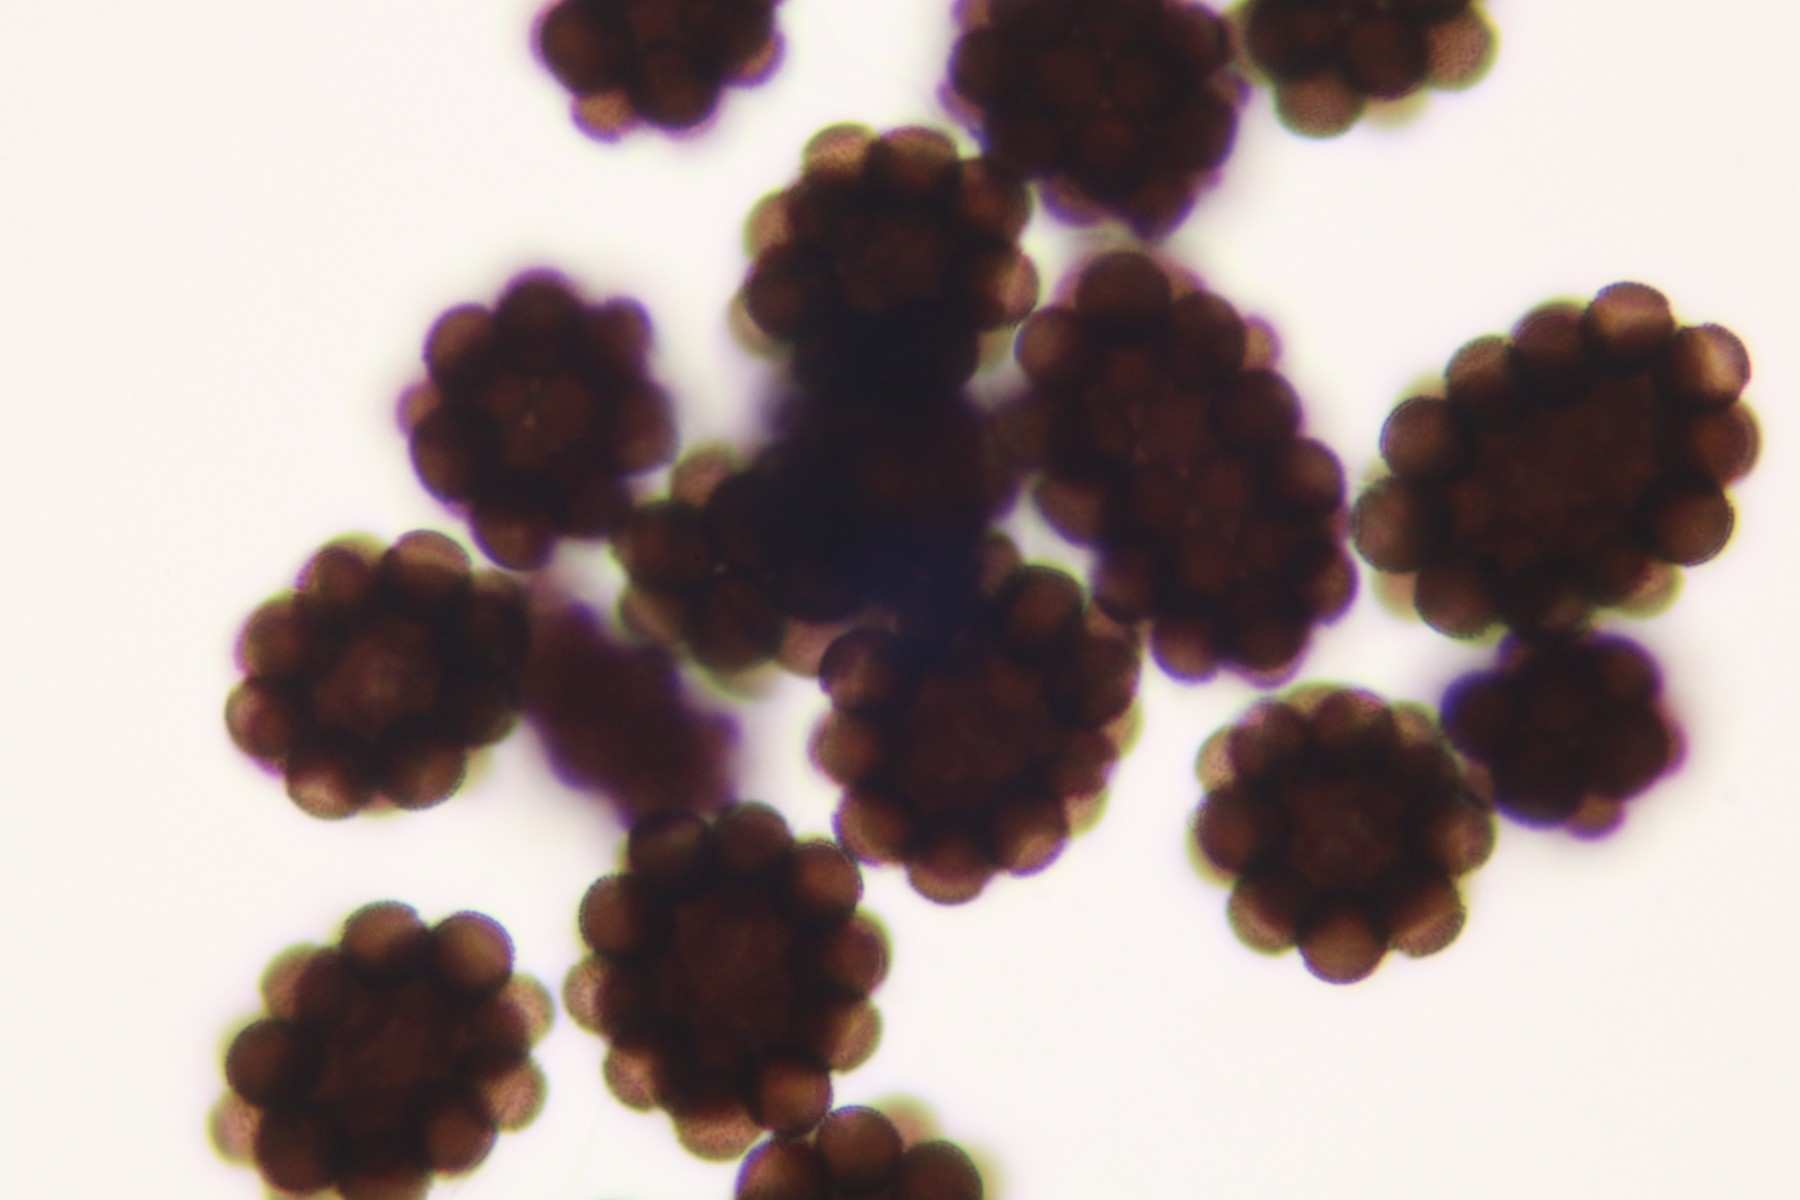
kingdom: Protozoa
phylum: Mycetozoa
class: Myxomycetes
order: Physarales
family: Physaraceae
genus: Badhamia
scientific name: Badhamia capsulifera
